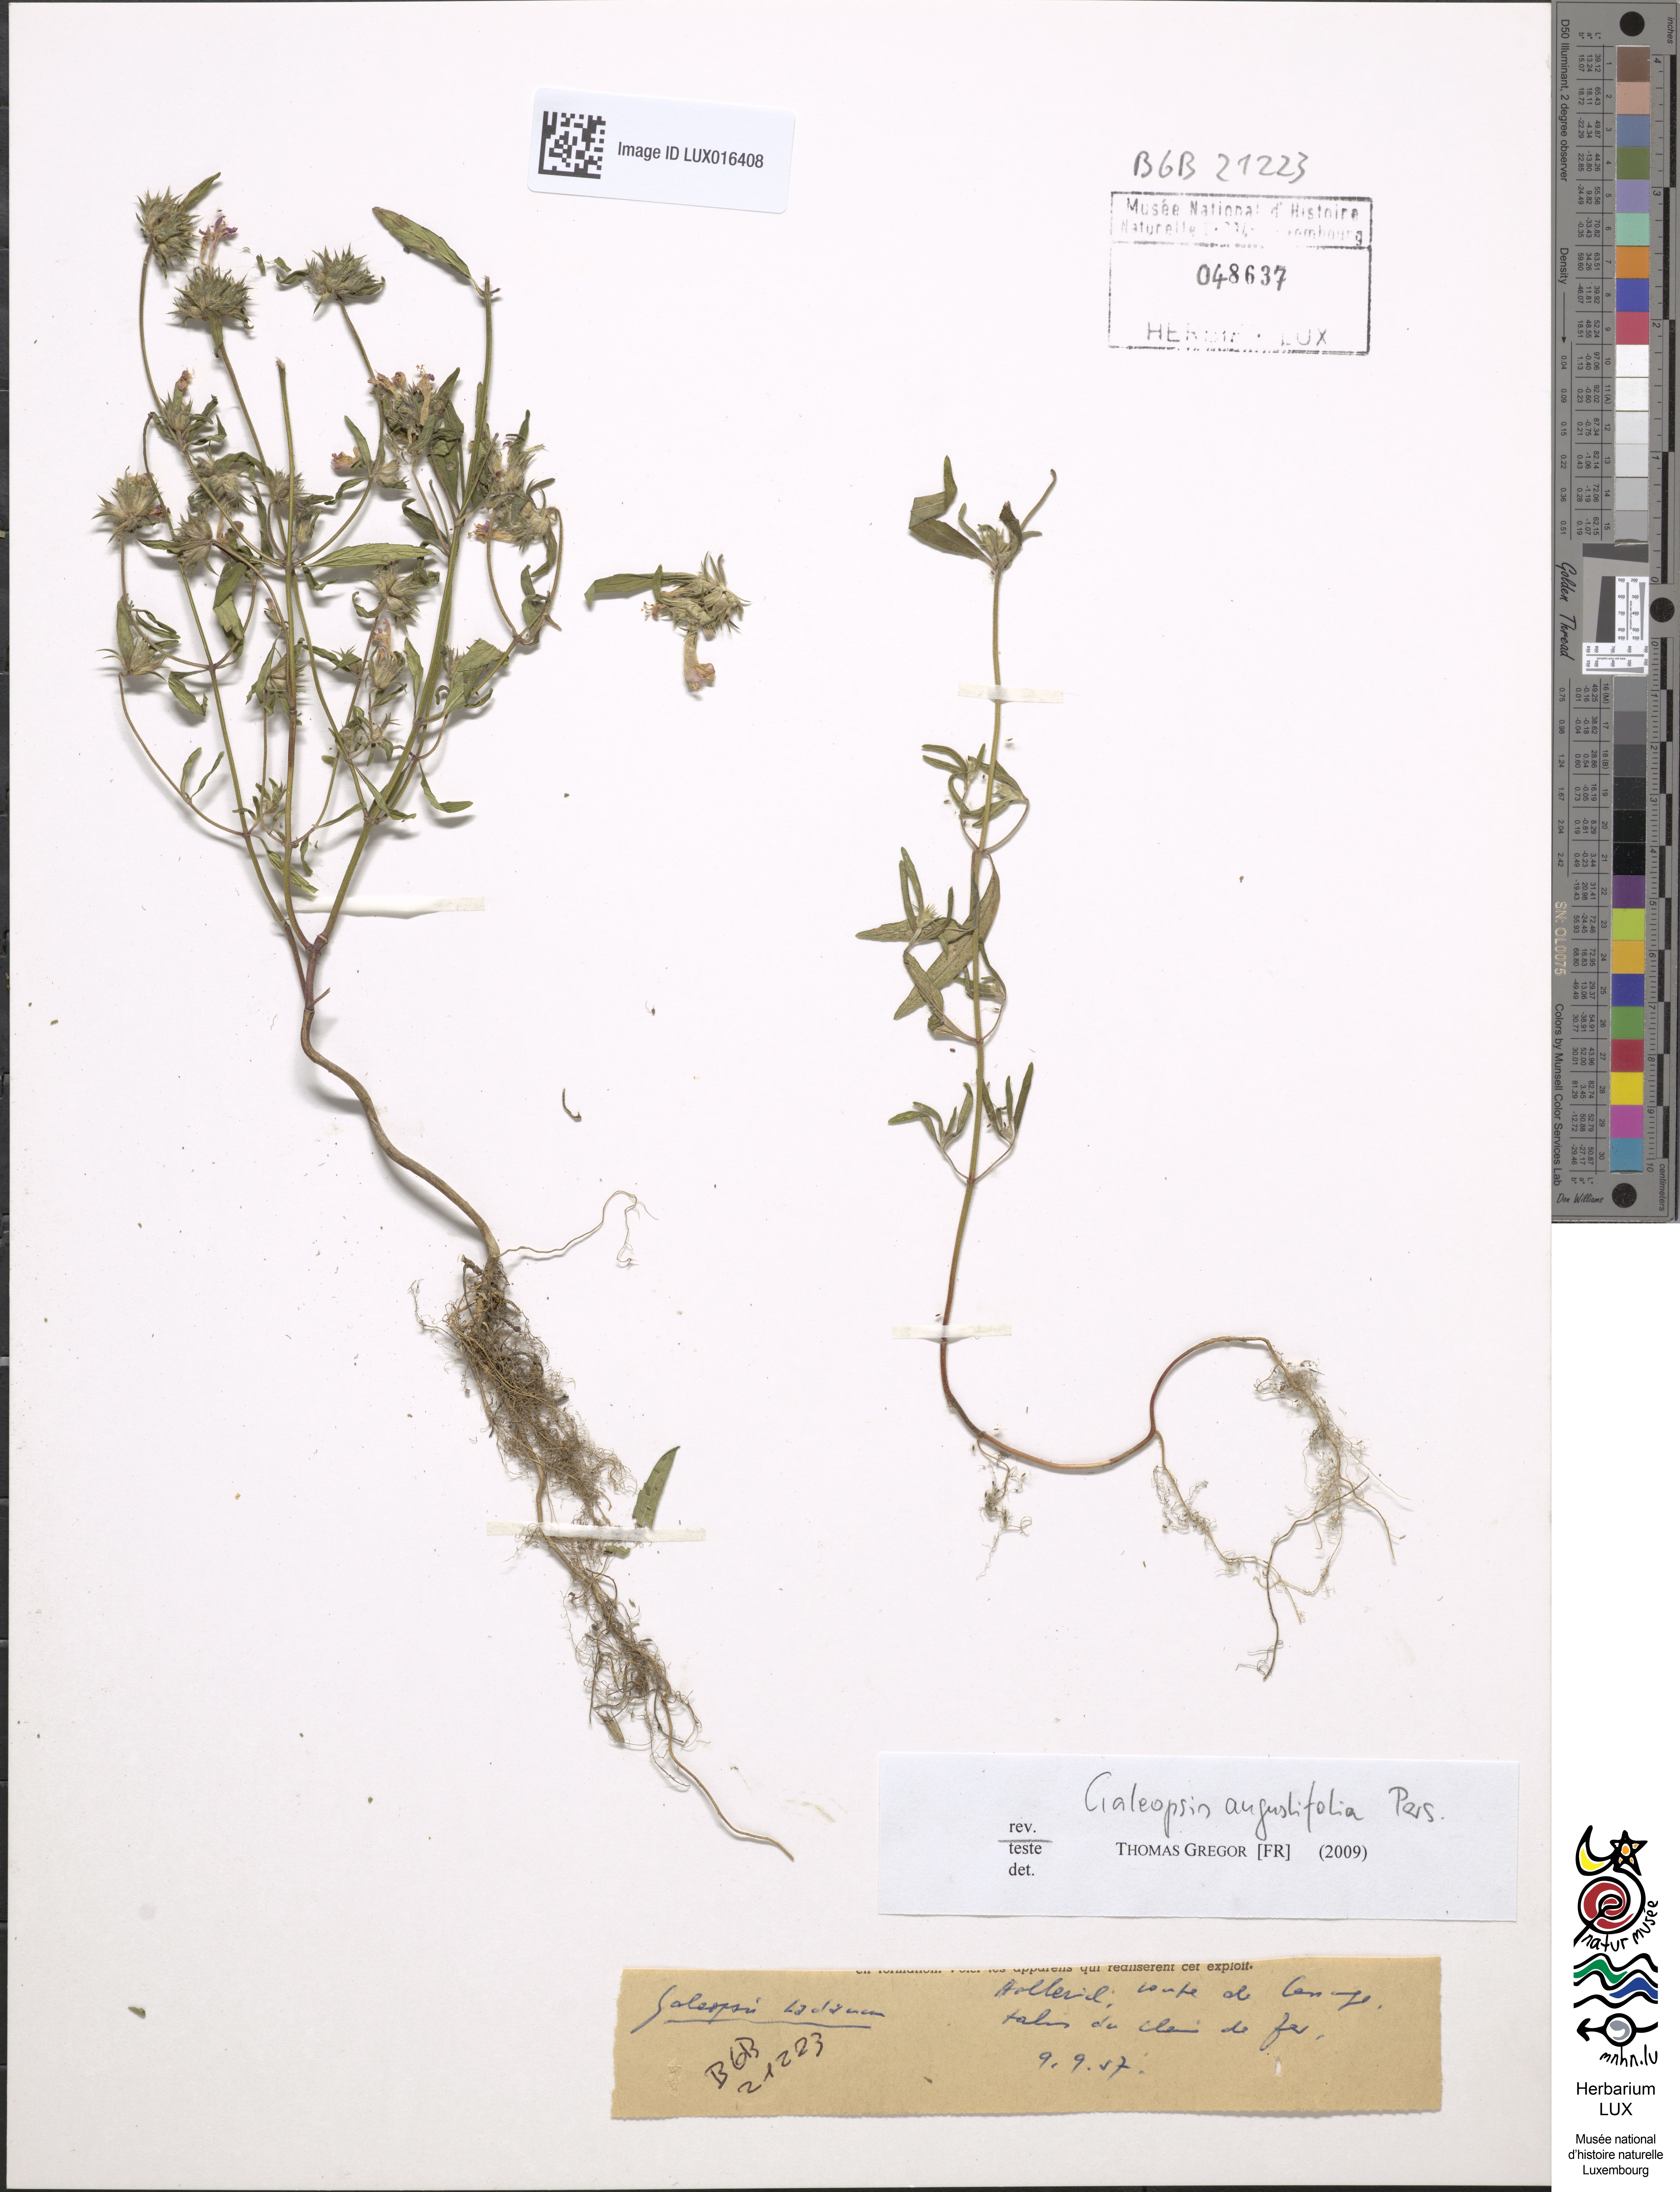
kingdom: Plantae
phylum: Tracheophyta
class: Magnoliopsida
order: Lamiales
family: Lamiaceae
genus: Galeopsis
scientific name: Galeopsis angustifolia
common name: Red hemp-nettle
